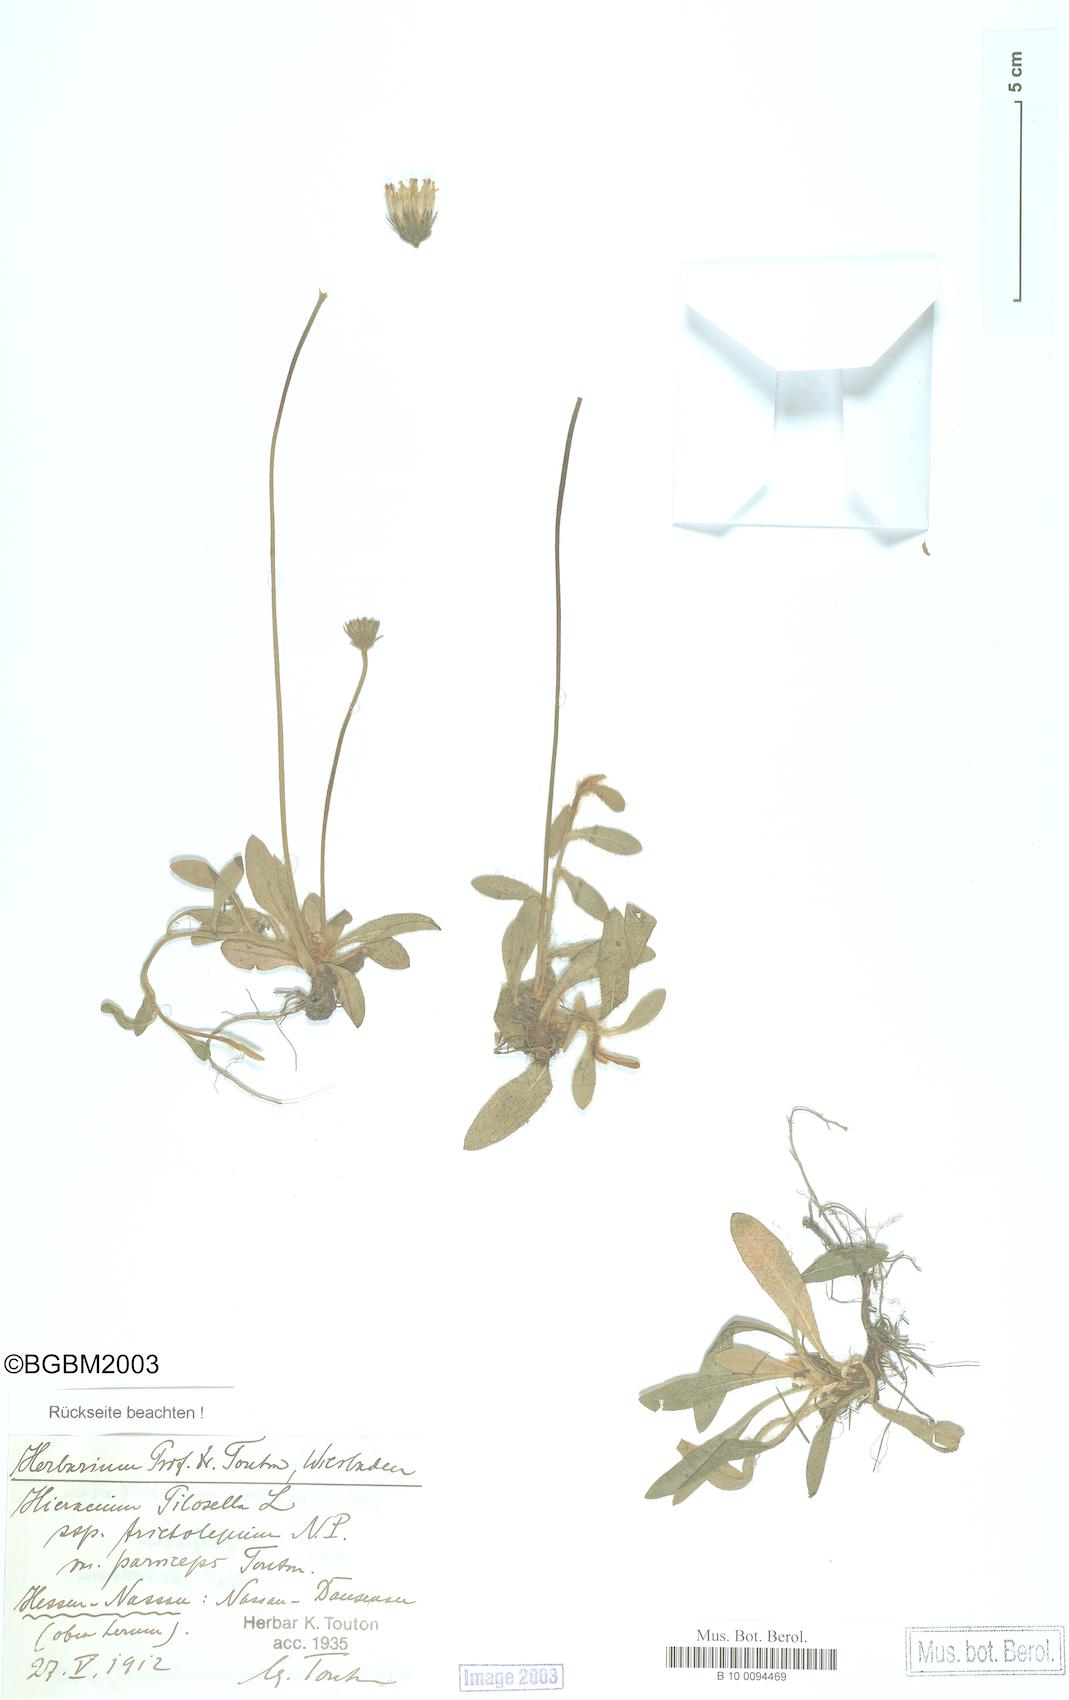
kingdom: Plantae
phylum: Tracheophyta
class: Magnoliopsida
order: Asterales
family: Asteraceae
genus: Pilosella
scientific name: Pilosella officinarum
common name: Mouse-ear hawkweed
